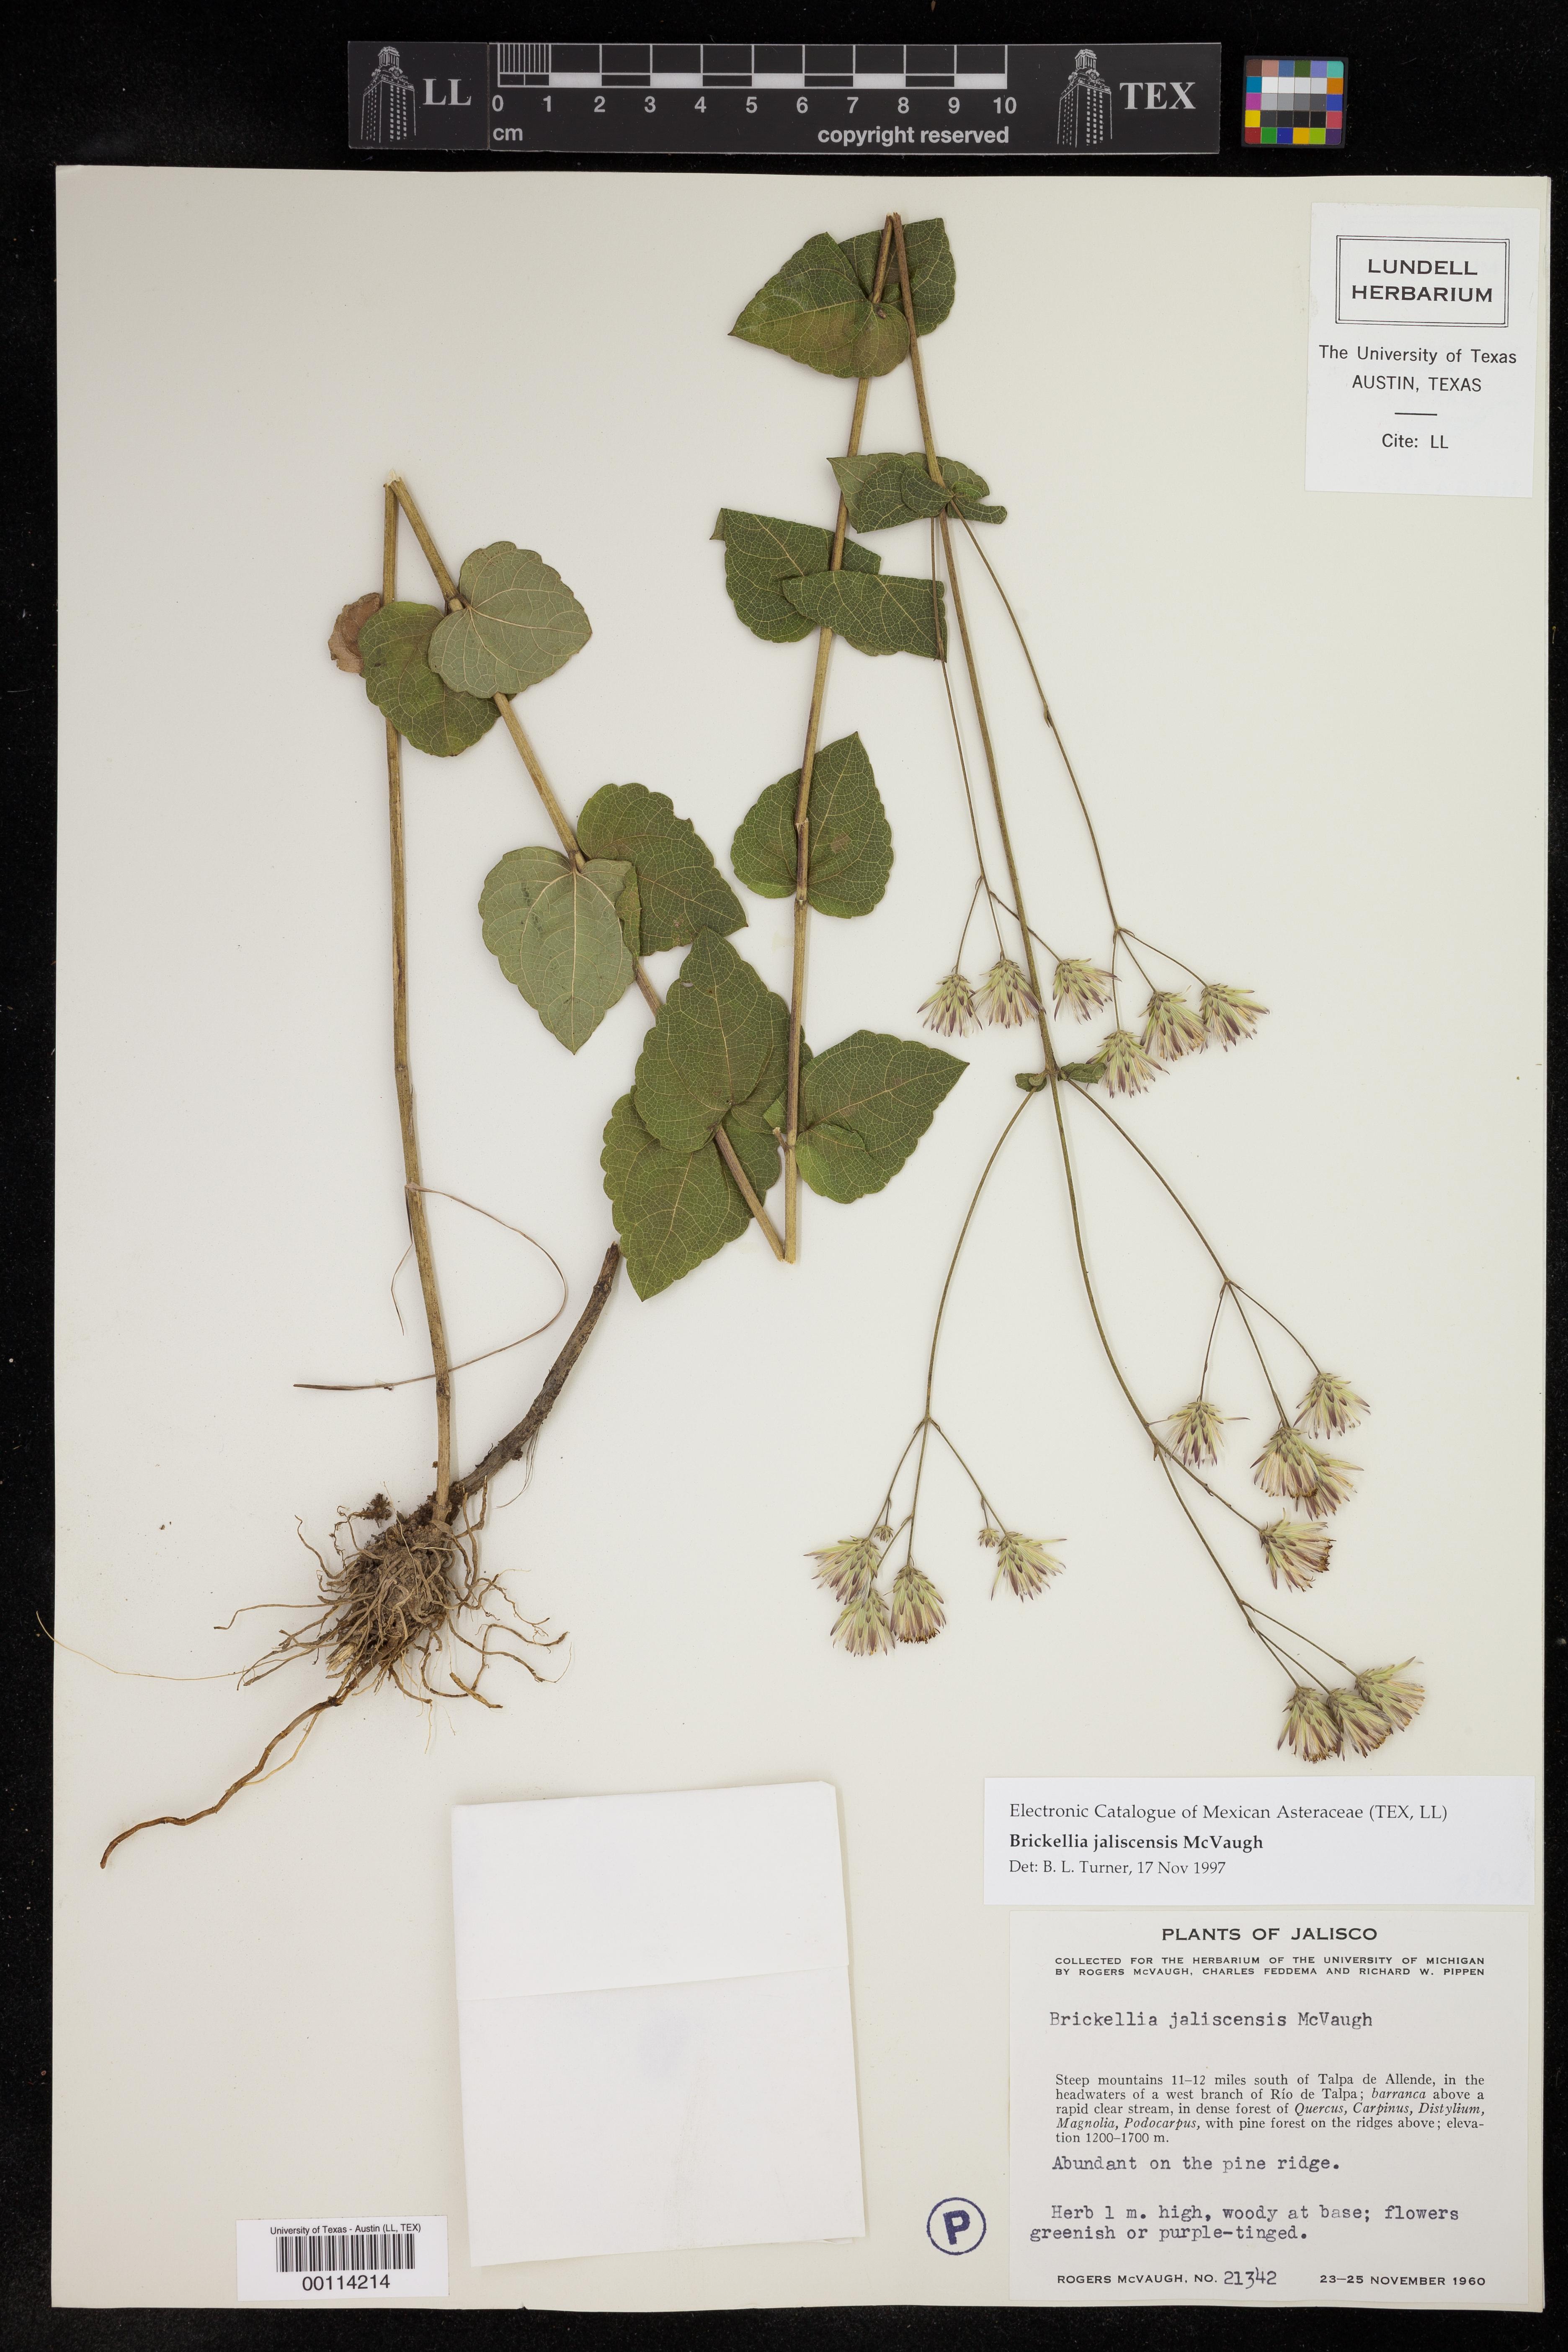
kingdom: Plantae
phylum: Tracheophyta
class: Magnoliopsida
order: Asterales
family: Asteraceae
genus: Brickellia
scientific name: Brickellia jaliscensis
